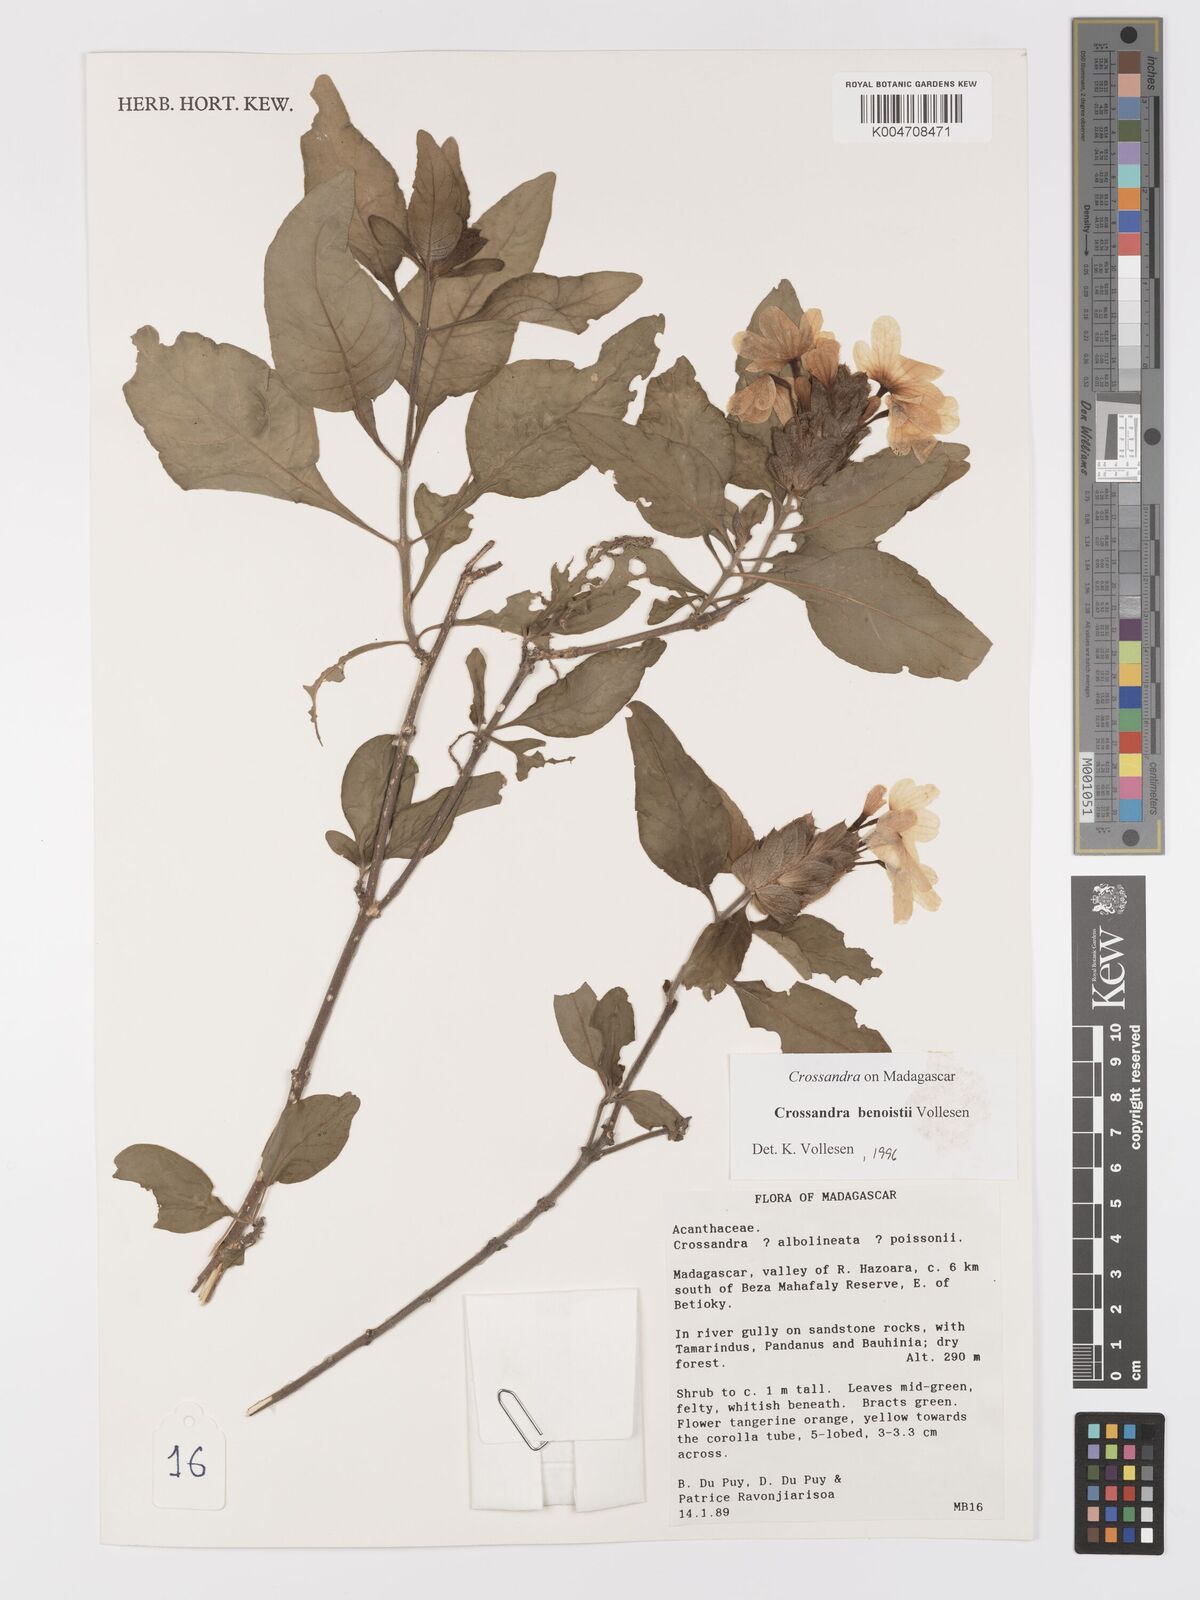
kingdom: Plantae
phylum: Tracheophyta
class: Magnoliopsida
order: Lamiales
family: Acanthaceae
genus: Crossandra
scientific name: Crossandra benoistii
